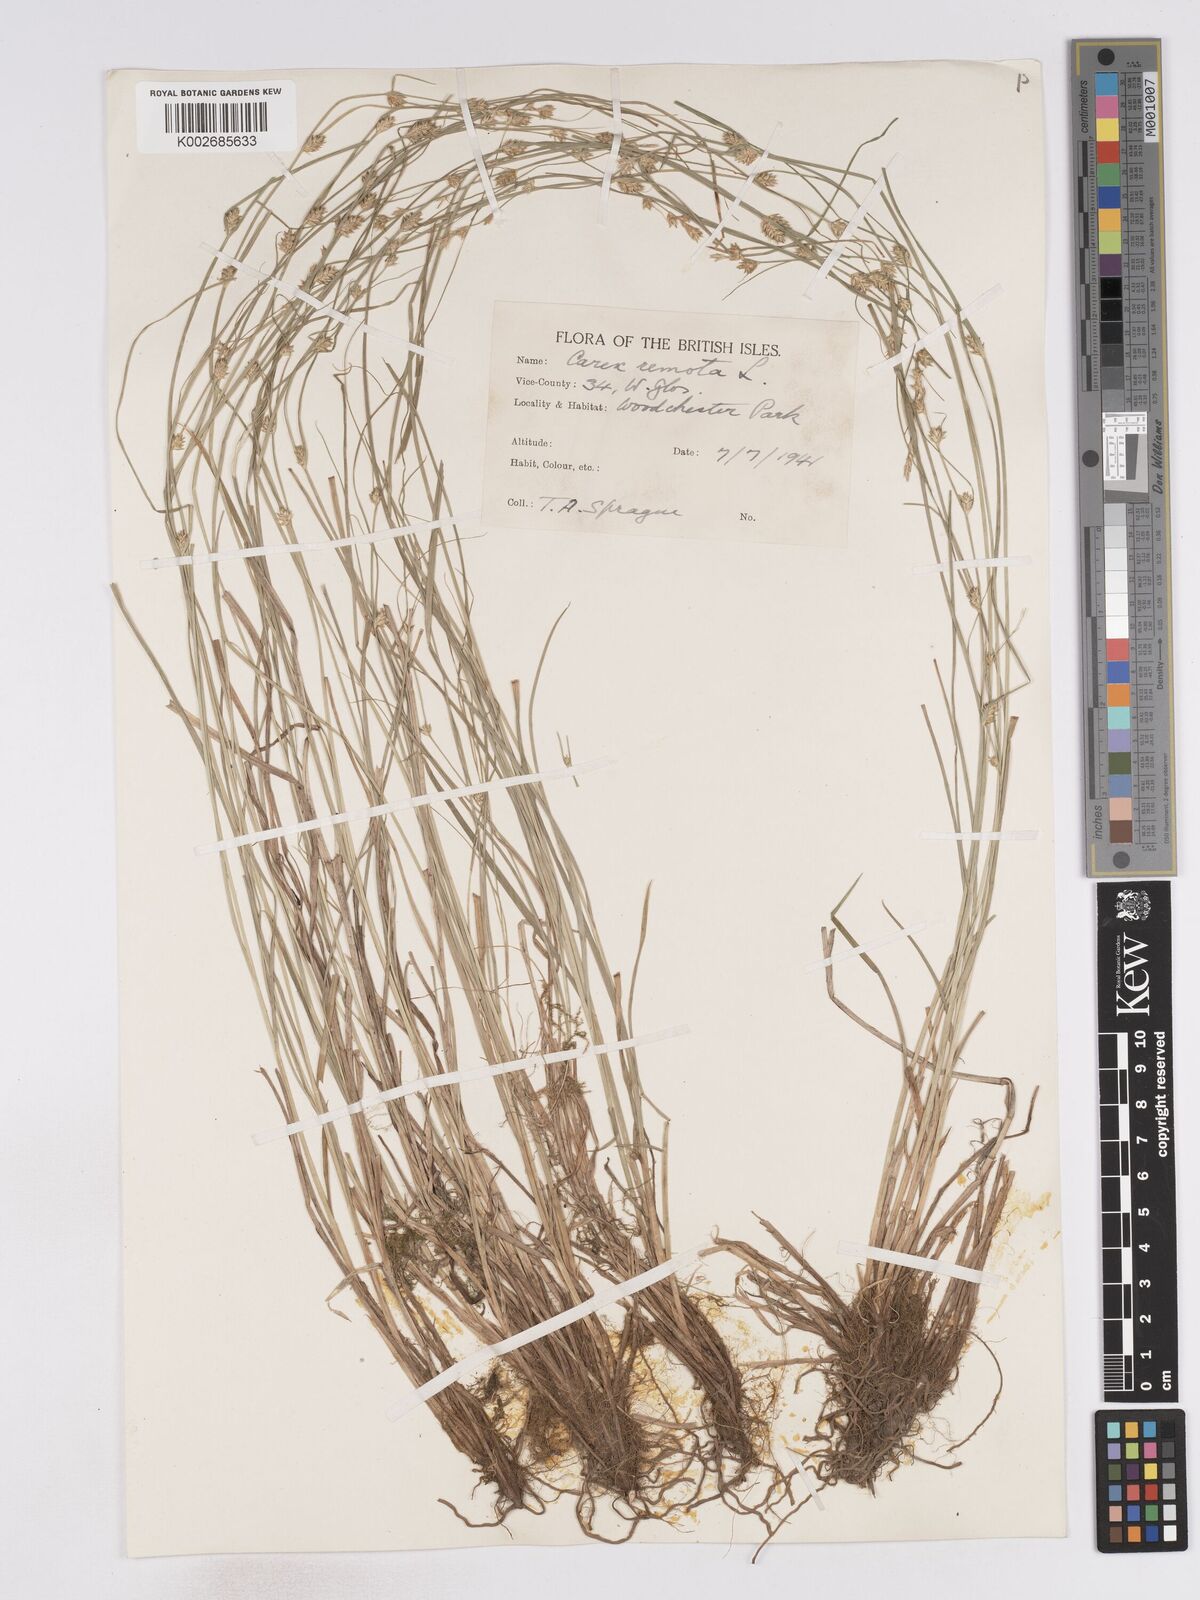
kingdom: Plantae
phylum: Tracheophyta
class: Liliopsida
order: Poales
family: Cyperaceae
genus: Carex
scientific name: Carex remota
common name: Remote sedge
